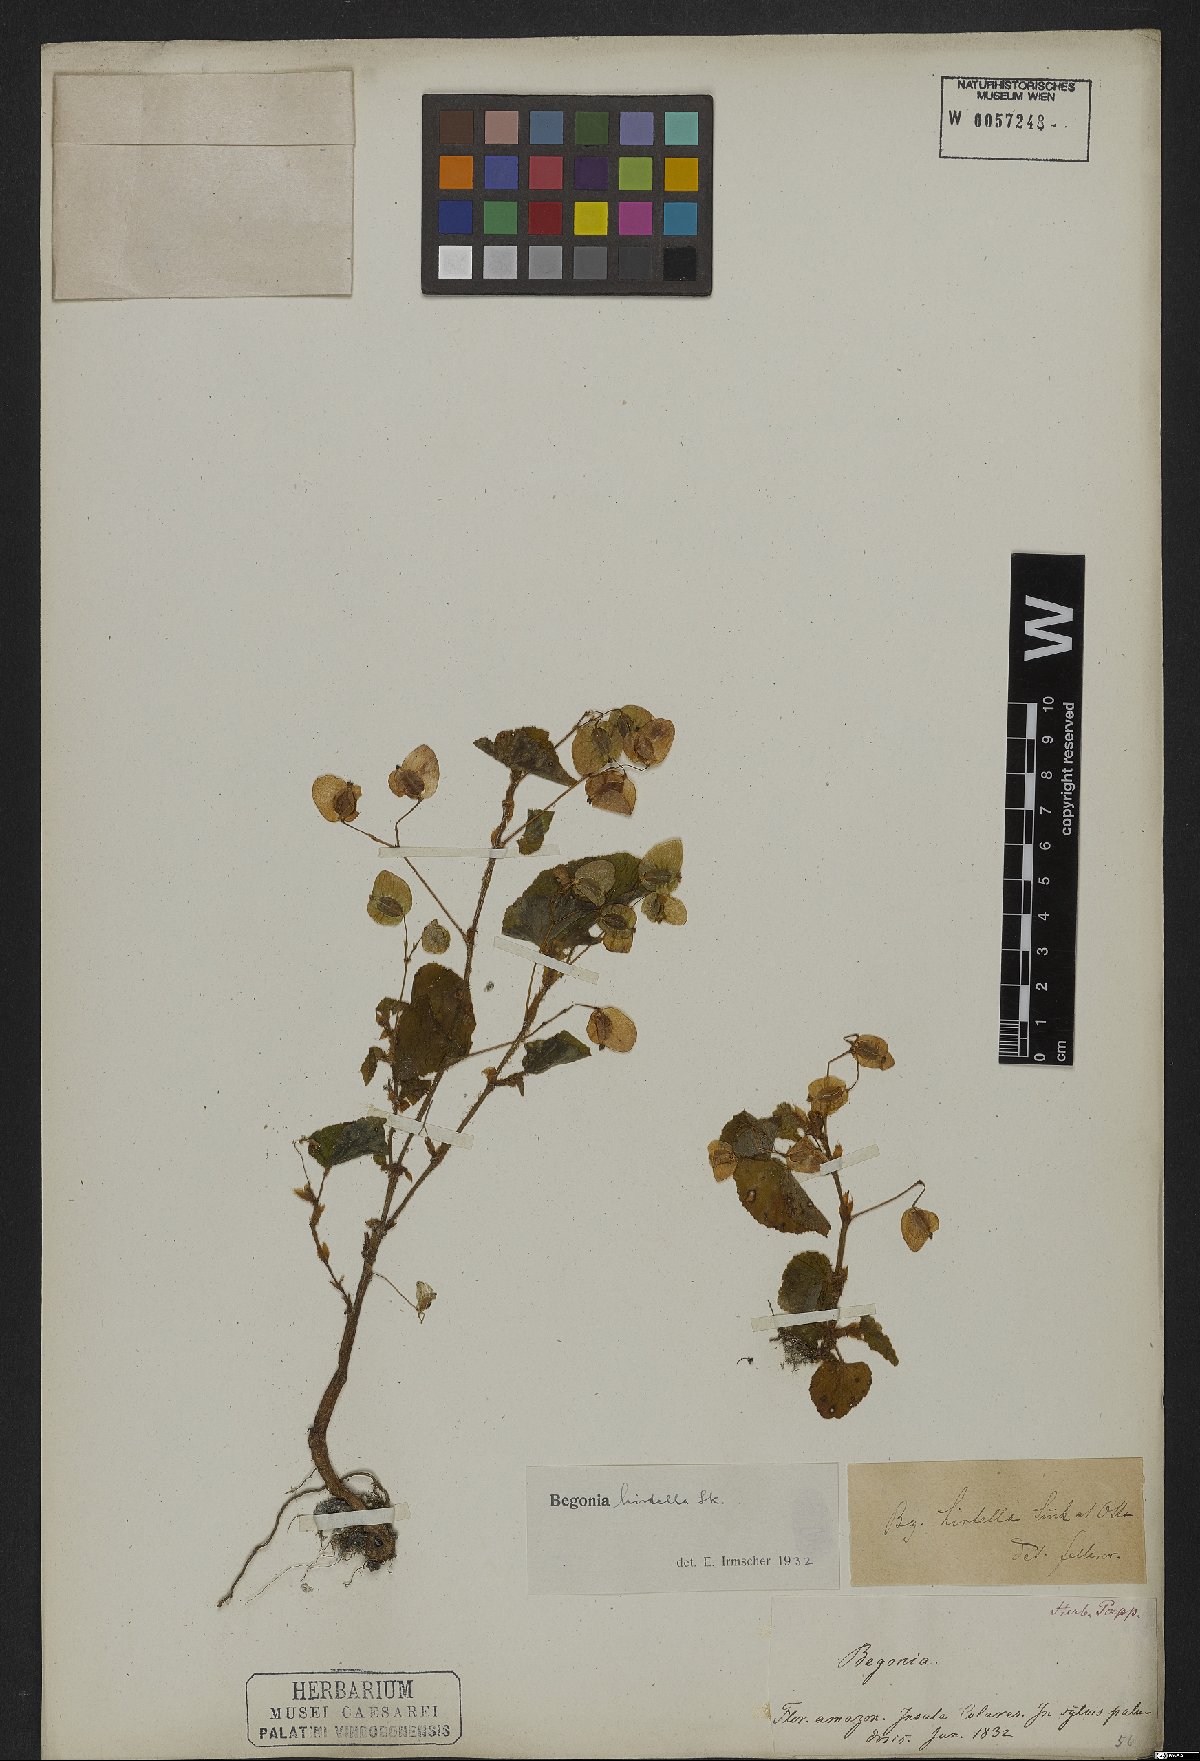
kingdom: Plantae
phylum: Tracheophyta
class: Magnoliopsida
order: Cucurbitales
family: Begoniaceae
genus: Begonia
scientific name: Begonia hirtella
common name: Brazilian begonia
